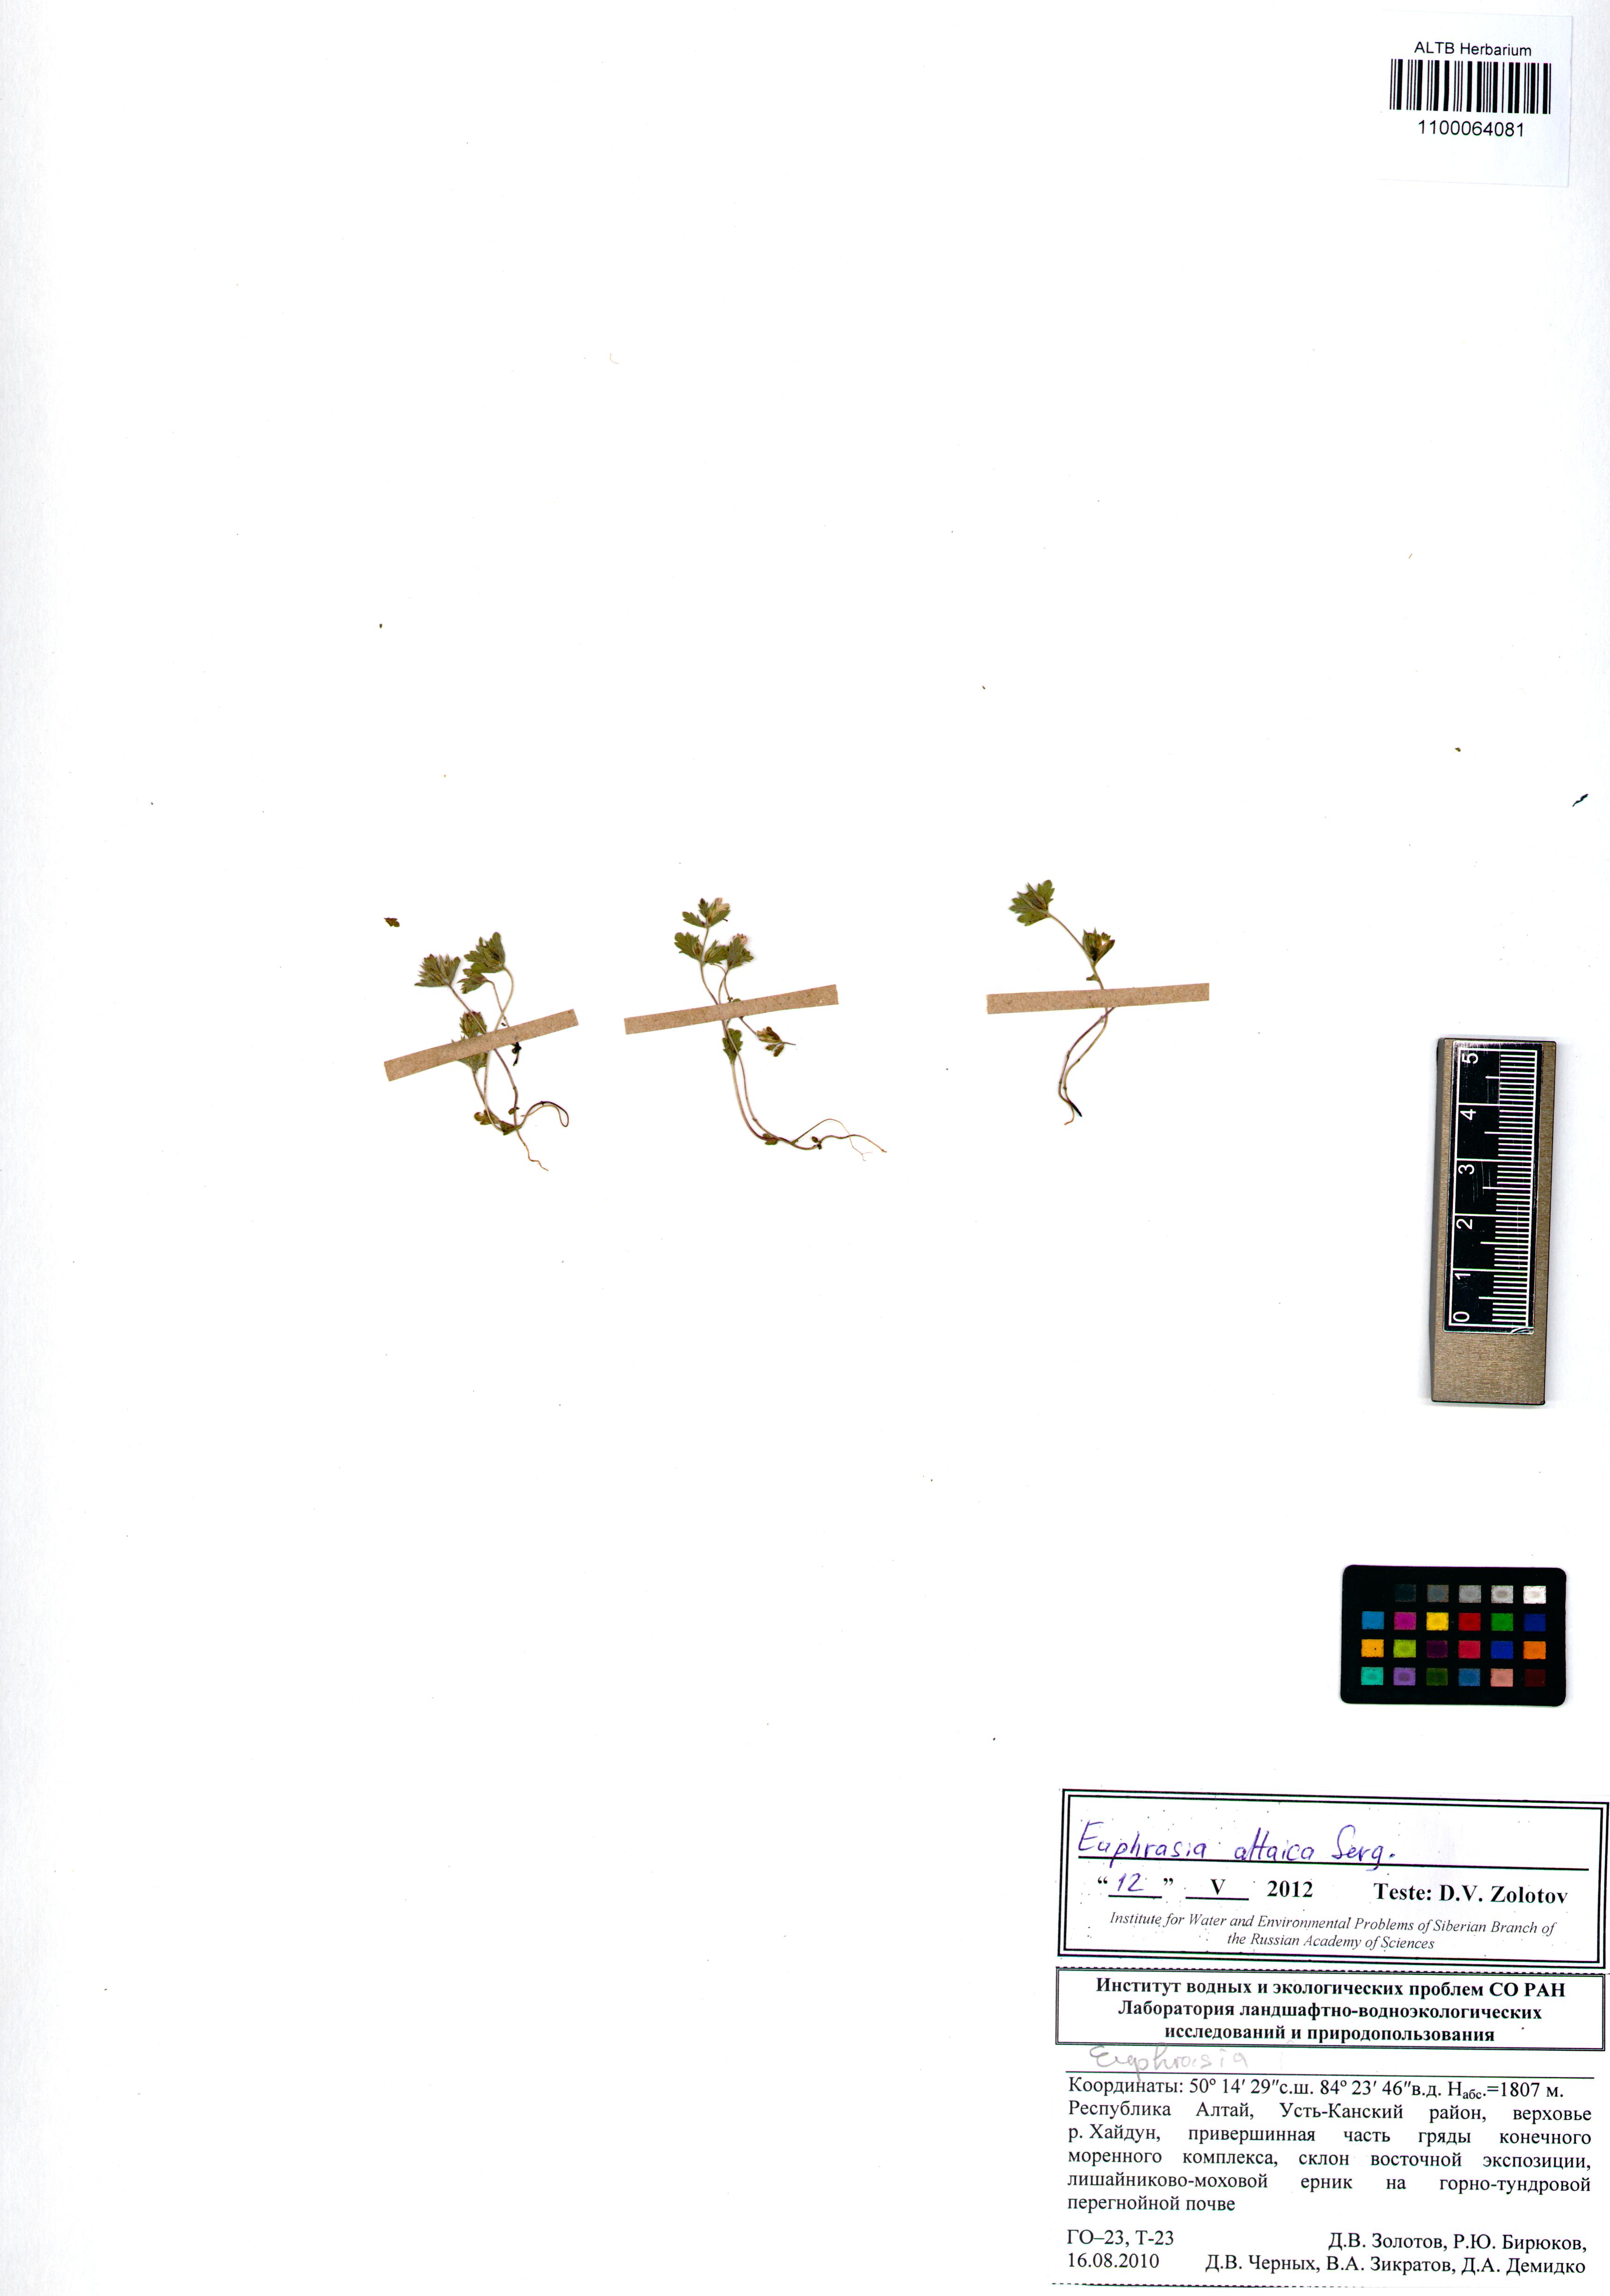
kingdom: Plantae
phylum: Tracheophyta
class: Magnoliopsida
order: Lamiales
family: Orobanchaceae
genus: Euphrasia
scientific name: Euphrasia altaica
